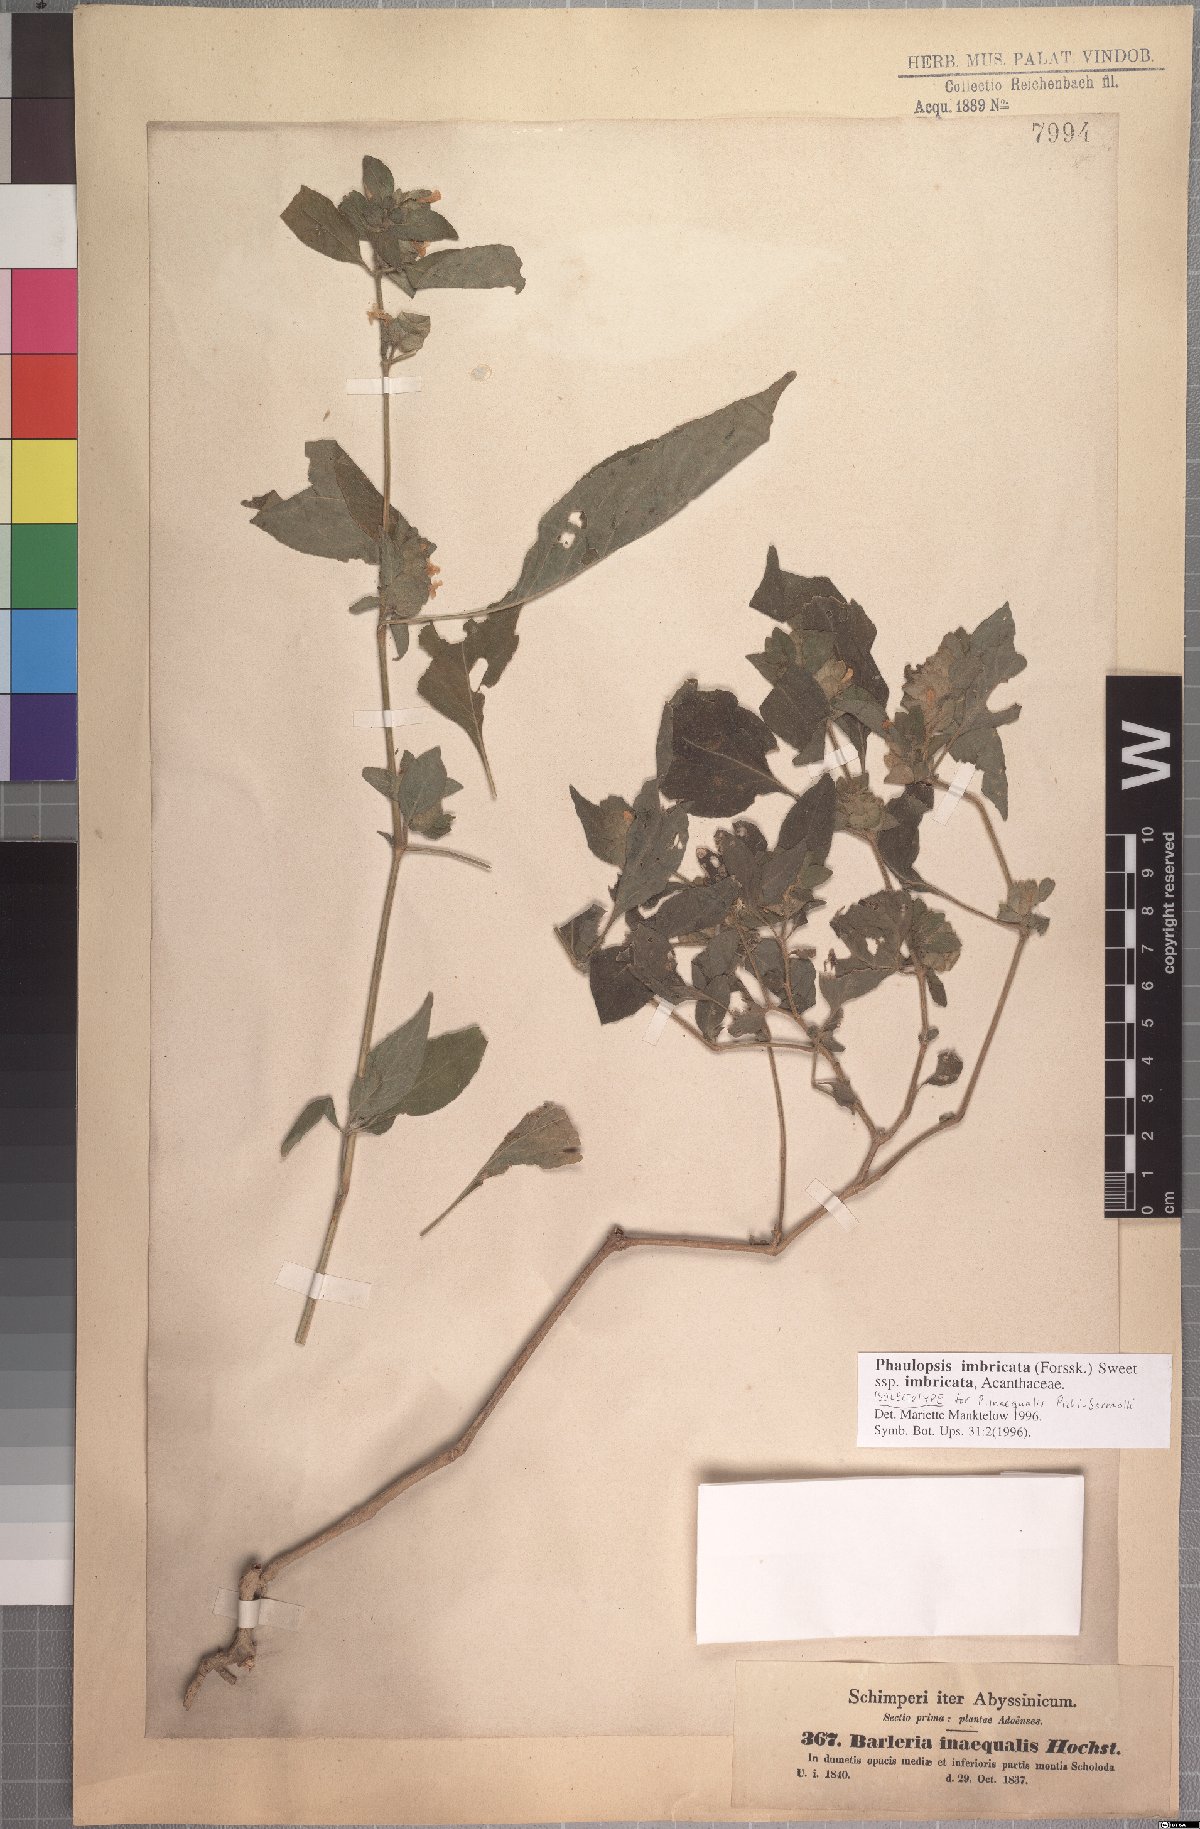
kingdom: Plantae
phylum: Tracheophyta
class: Magnoliopsida
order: Lamiales
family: Acanthaceae
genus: Phaulopsis
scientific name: Phaulopsis imbricata
